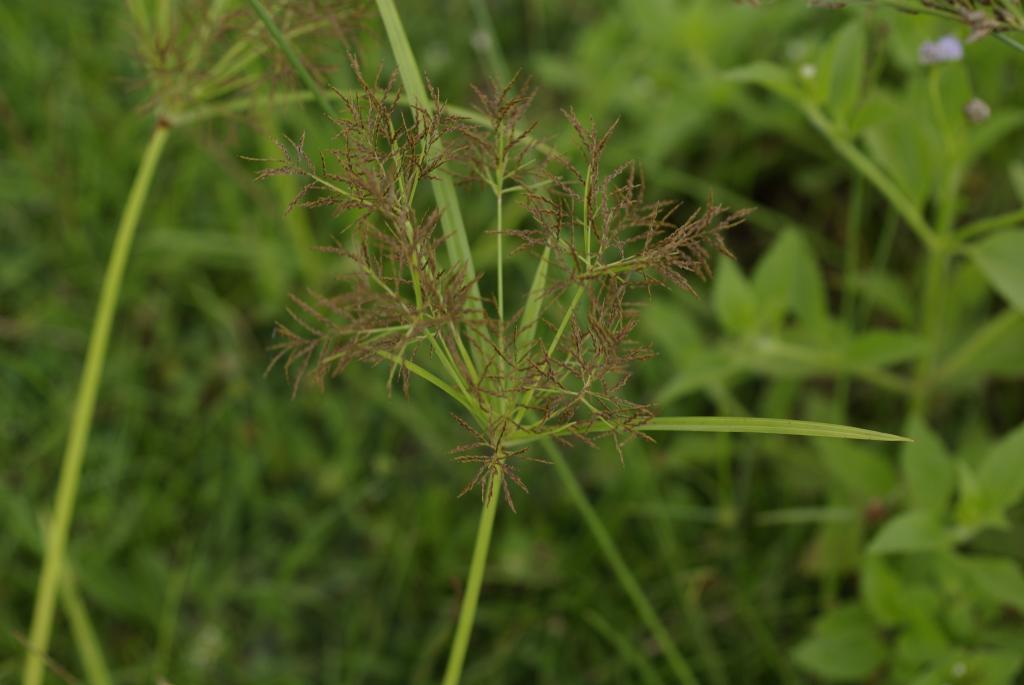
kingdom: Plantae
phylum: Tracheophyta
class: Liliopsida
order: Poales
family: Cyperaceae
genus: Cyperus
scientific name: Cyperus distans
